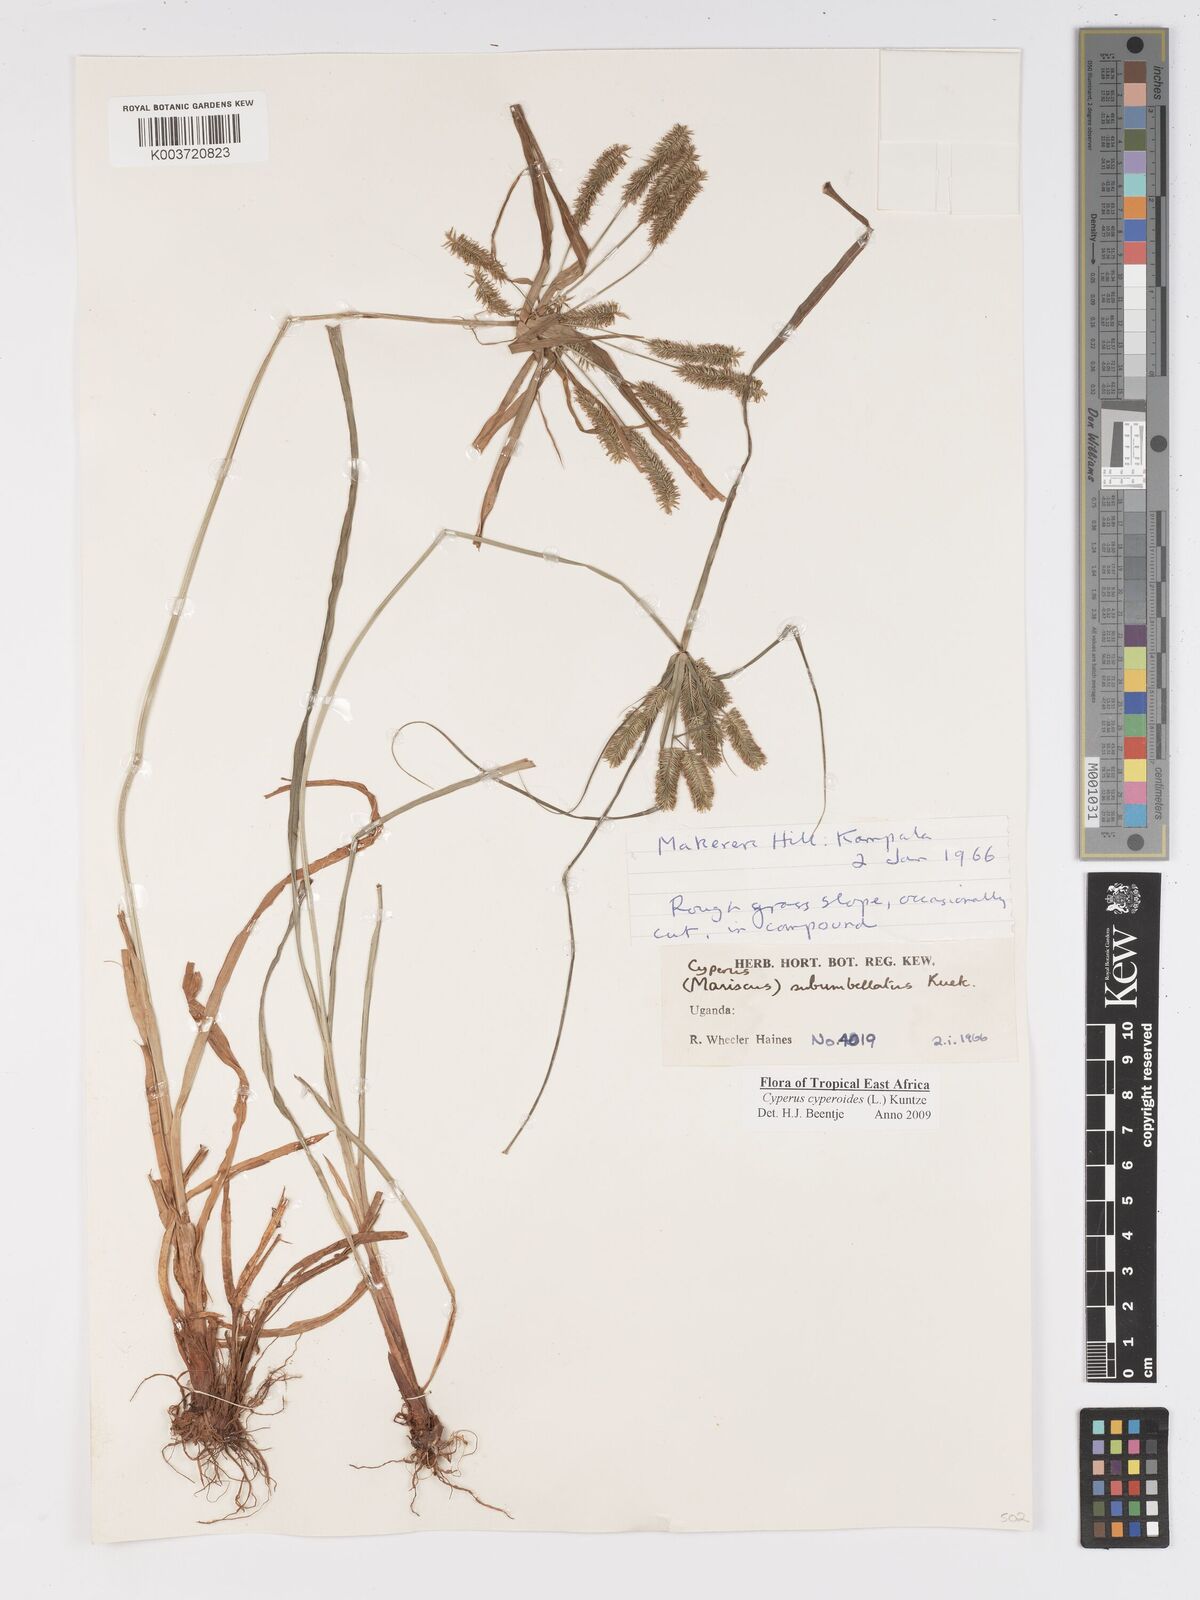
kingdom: Plantae
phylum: Tracheophyta
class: Liliopsida
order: Poales
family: Cyperaceae
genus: Cyperus
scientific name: Cyperus cyperoides
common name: Pacific island flat sedge
